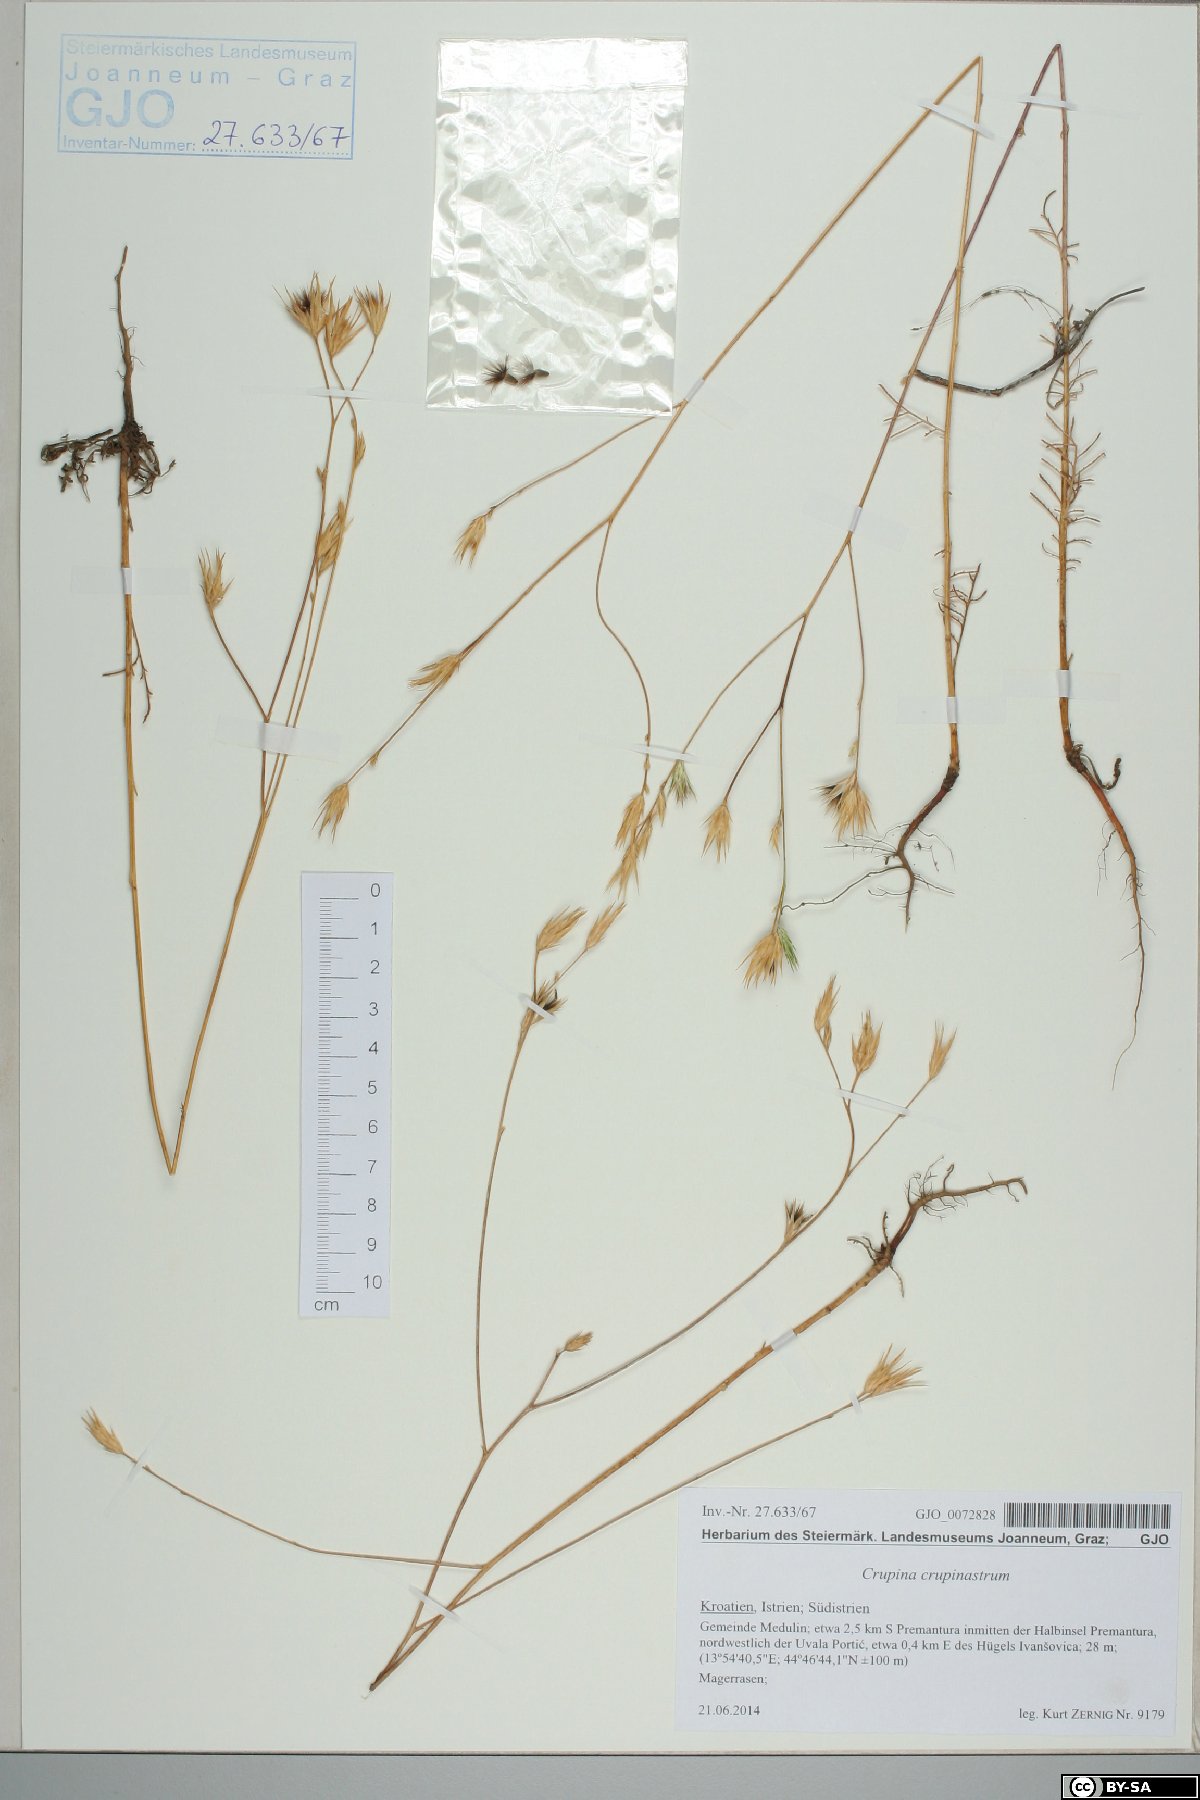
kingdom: Plantae
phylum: Tracheophyta
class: Magnoliopsida
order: Asterales
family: Asteraceae
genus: Crupina
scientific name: Crupina crupinastrum
